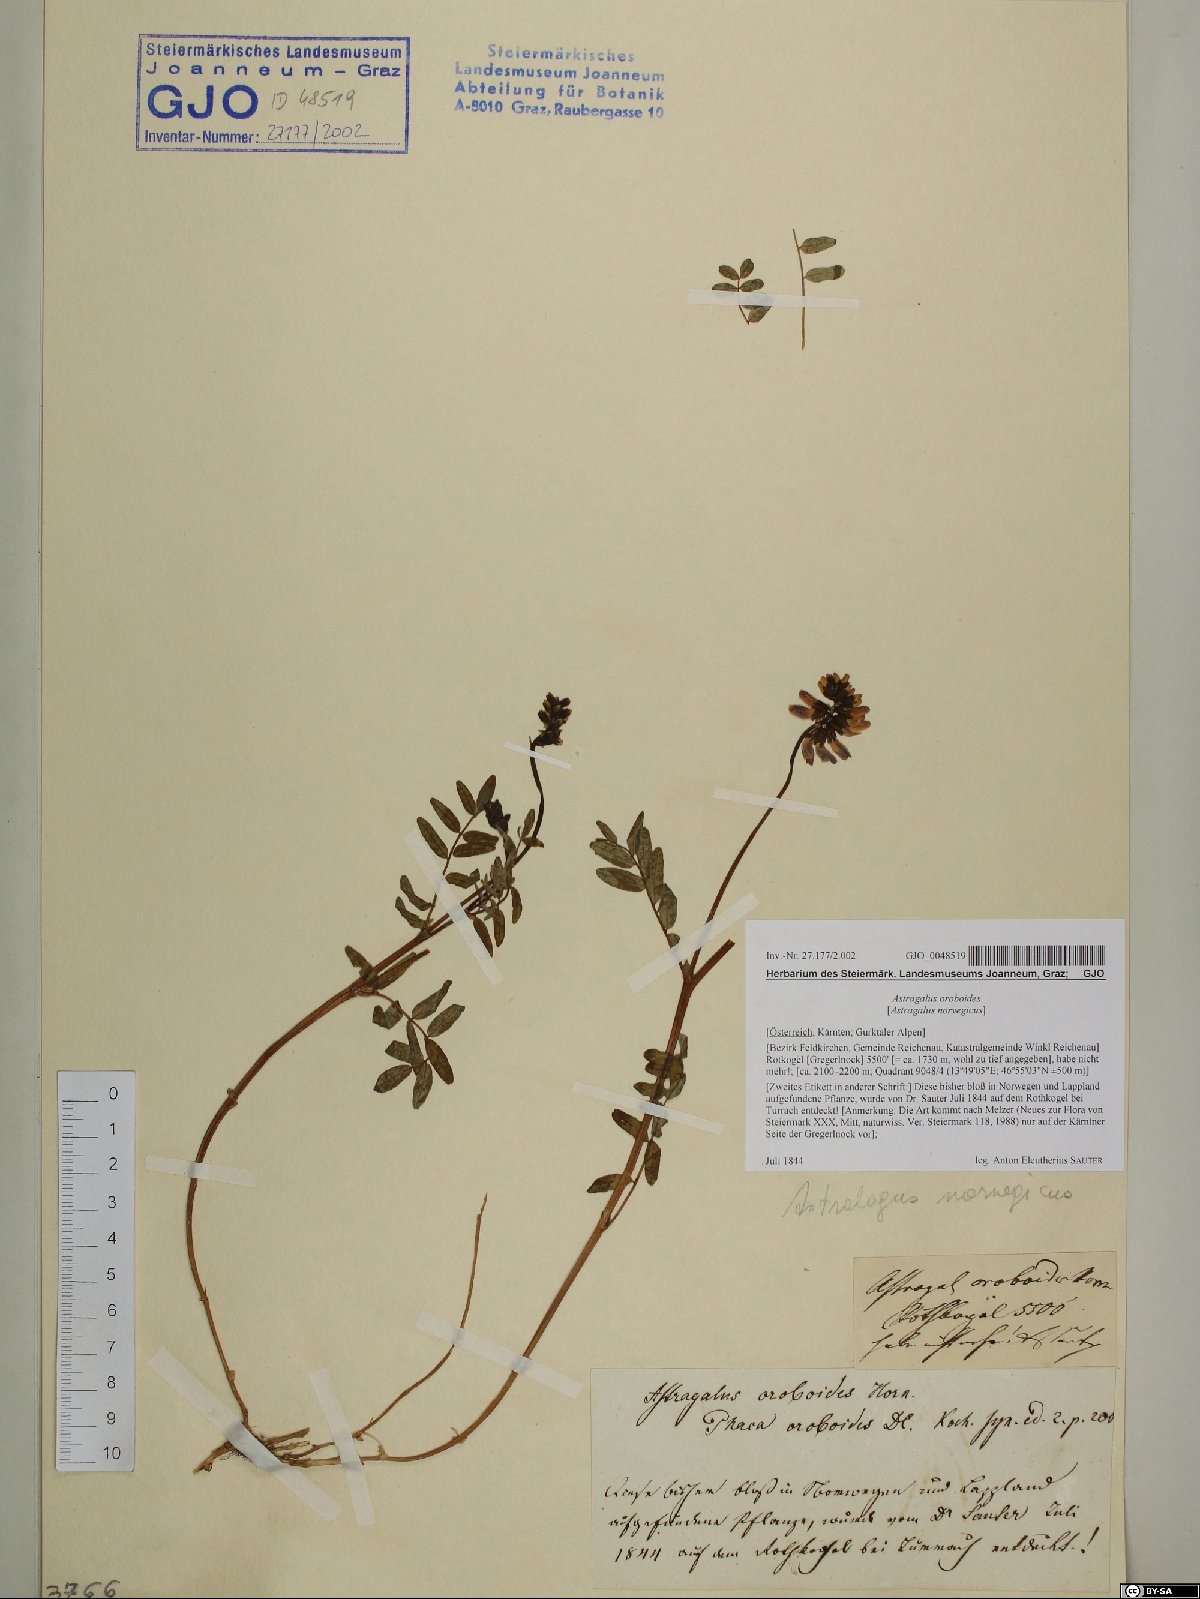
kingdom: Plantae
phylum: Tracheophyta
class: Magnoliopsida
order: Fabales
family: Fabaceae
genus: Astragalus
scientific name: Astragalus norvegicus
